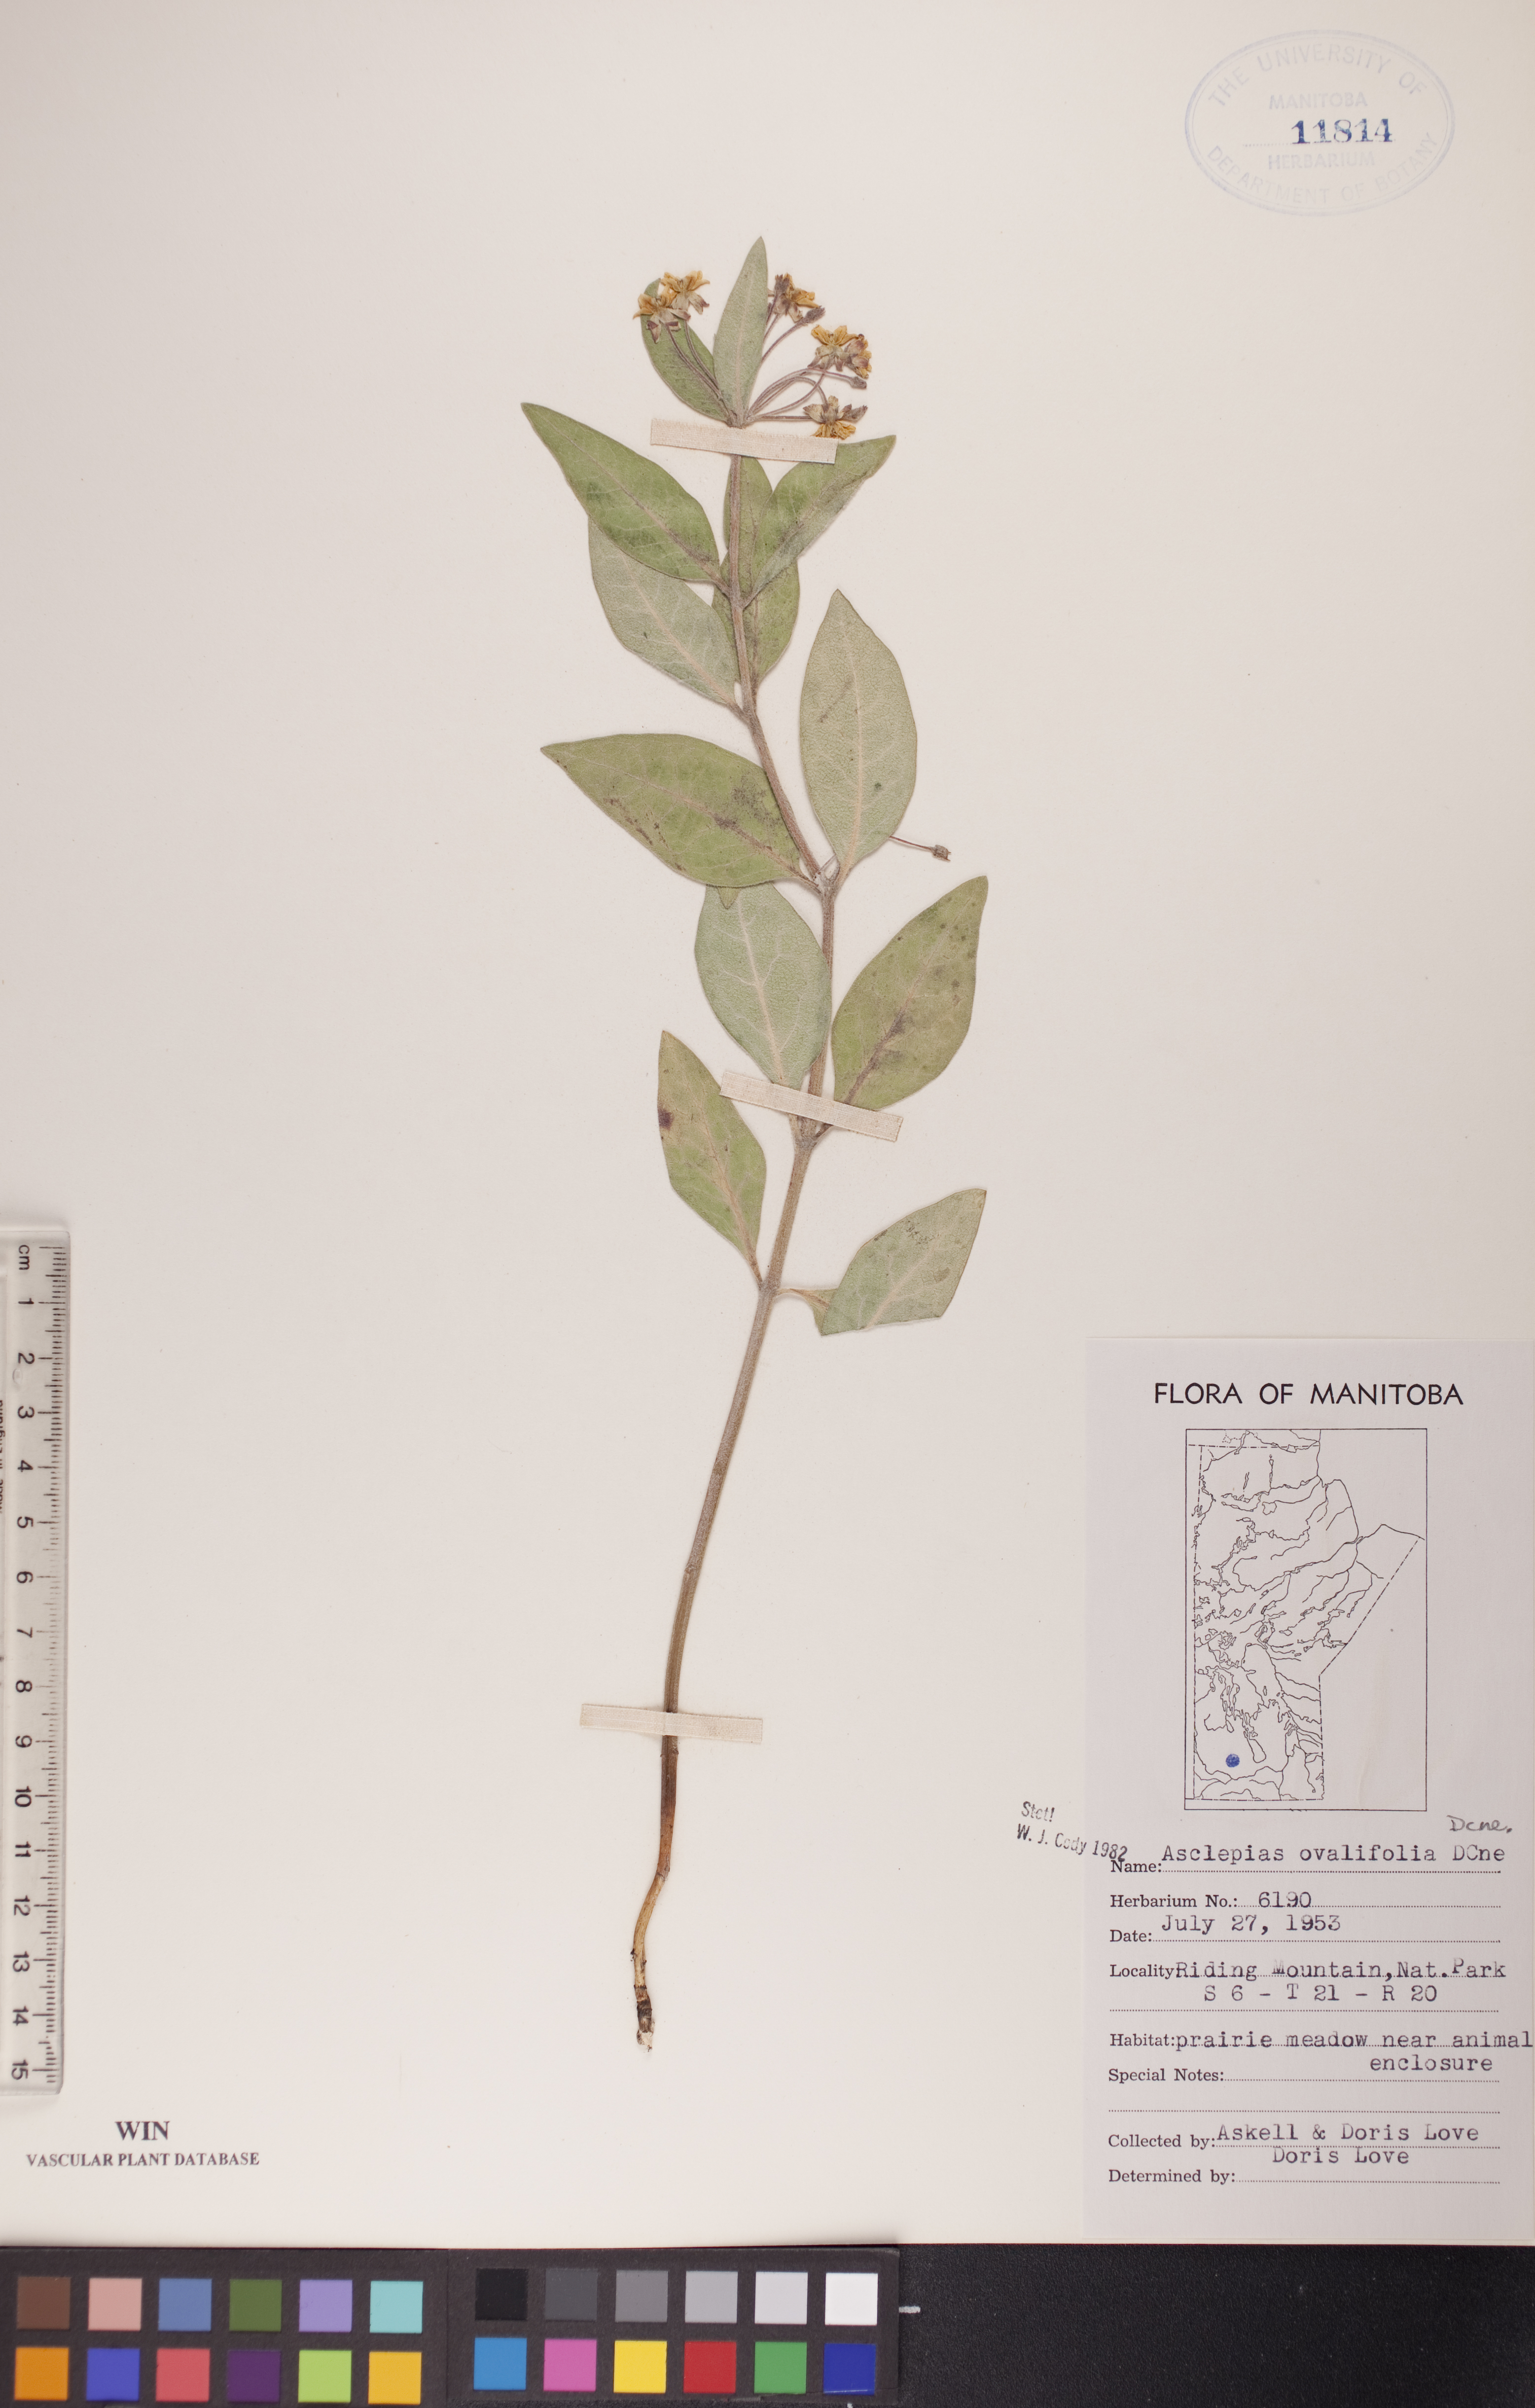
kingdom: Plantae
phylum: Tracheophyta
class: Magnoliopsida
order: Gentianales
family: Apocynaceae
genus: Asclepias
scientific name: Asclepias ovalifolia
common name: Dwarf milkweed
